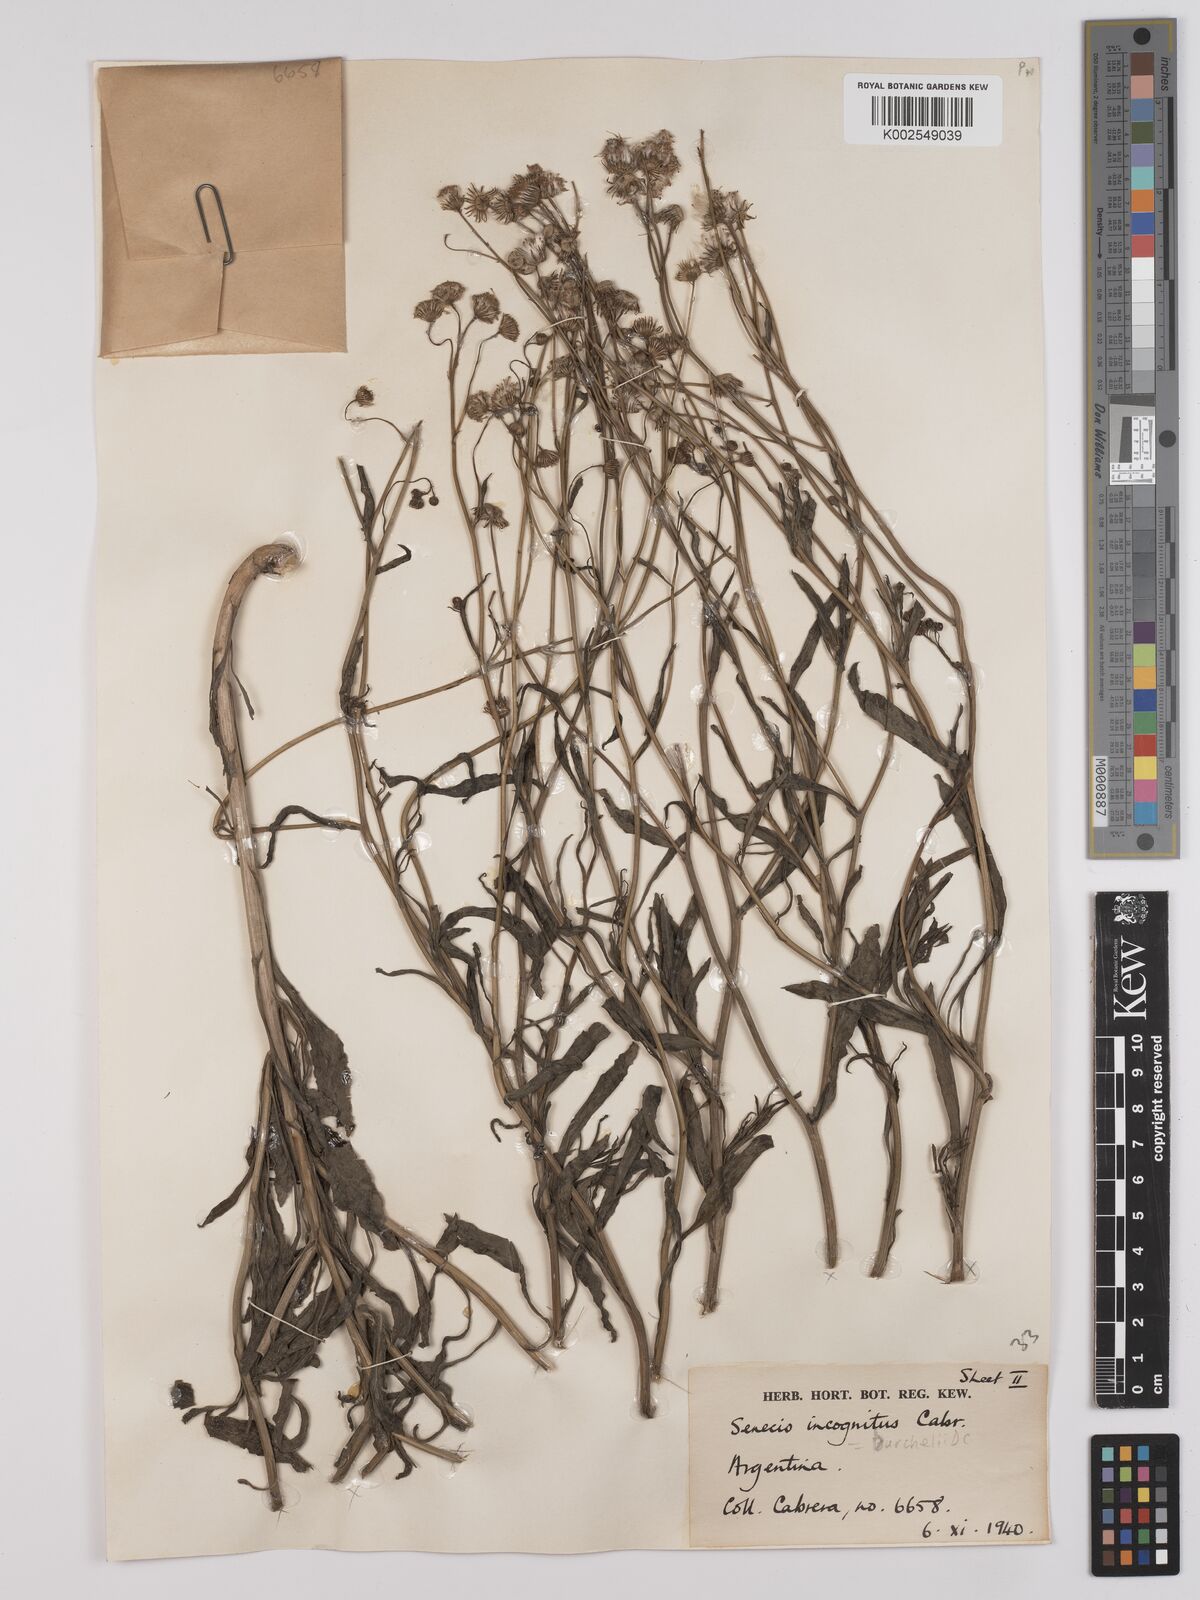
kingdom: Plantae
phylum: Tracheophyta
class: Magnoliopsida
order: Asterales
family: Asteraceae
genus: Senecio
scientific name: Senecio madagascariensis
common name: Madagascar ragwort
